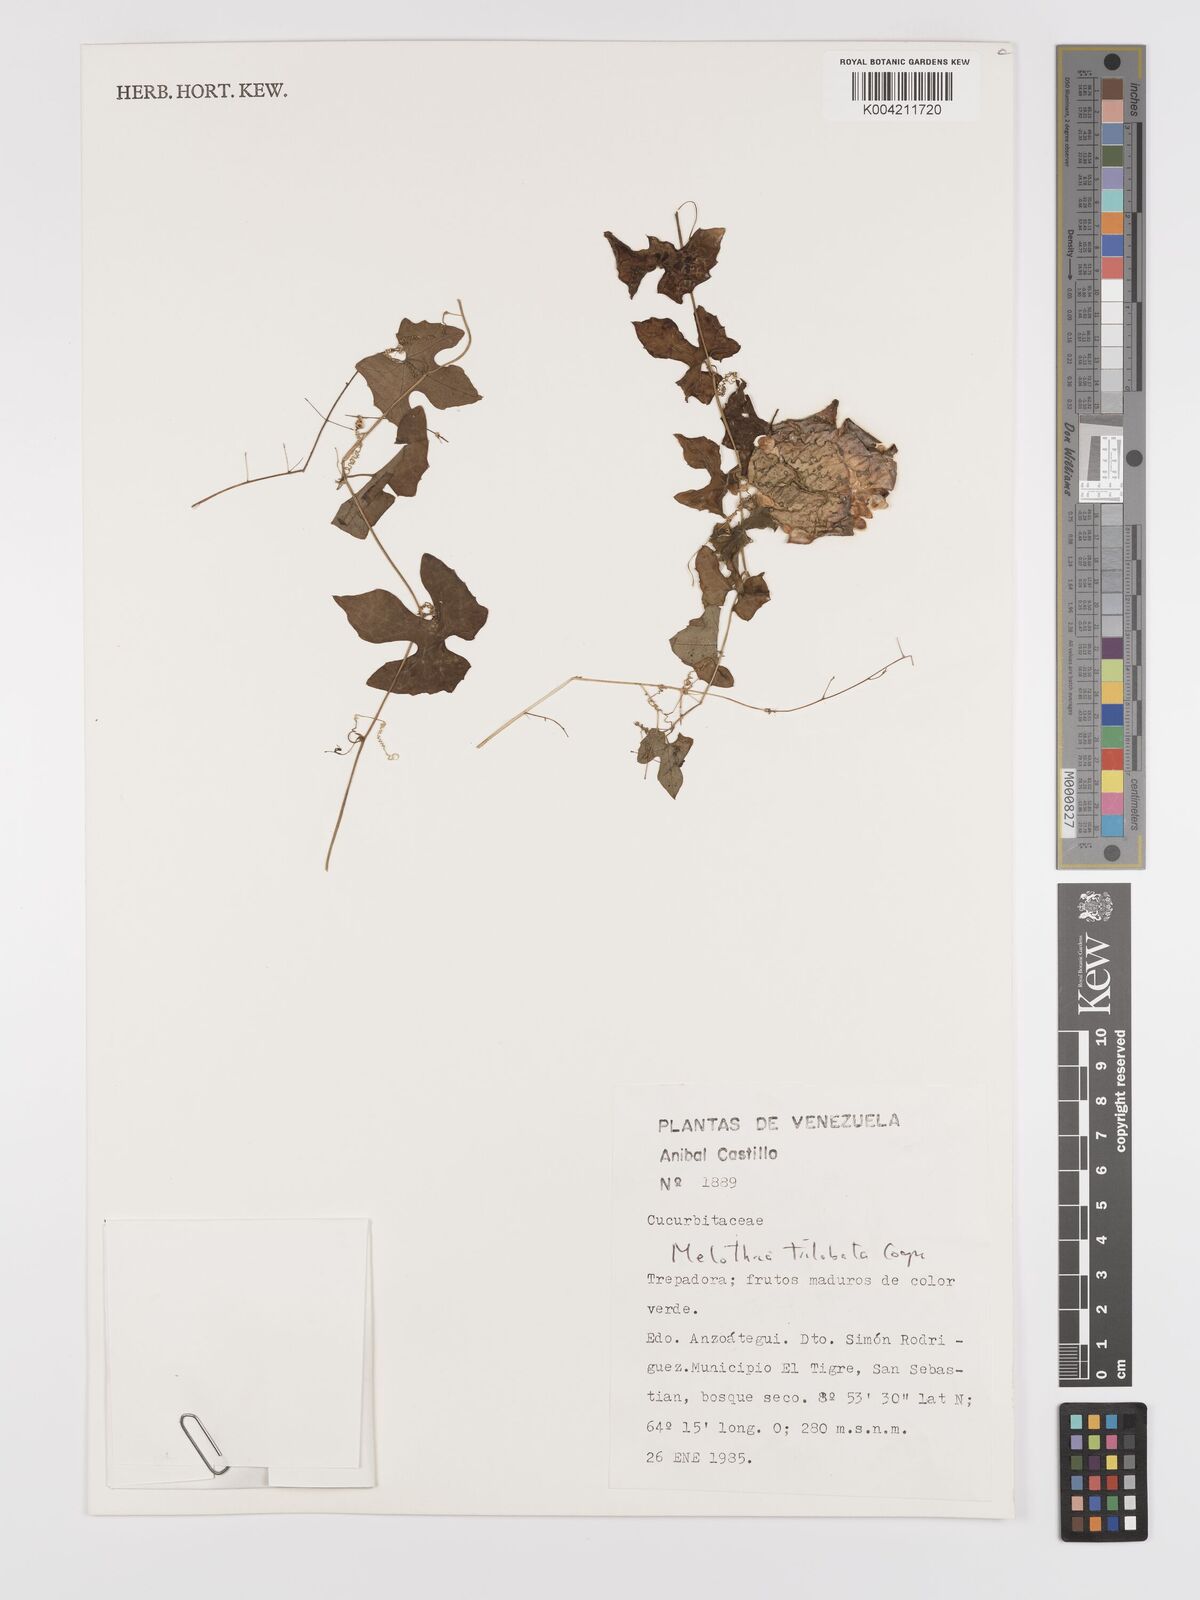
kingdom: Plantae
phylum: Tracheophyta
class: Magnoliopsida
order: Cucurbitales
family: Cucurbitaceae
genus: Melothria
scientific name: Melothria trilobata
